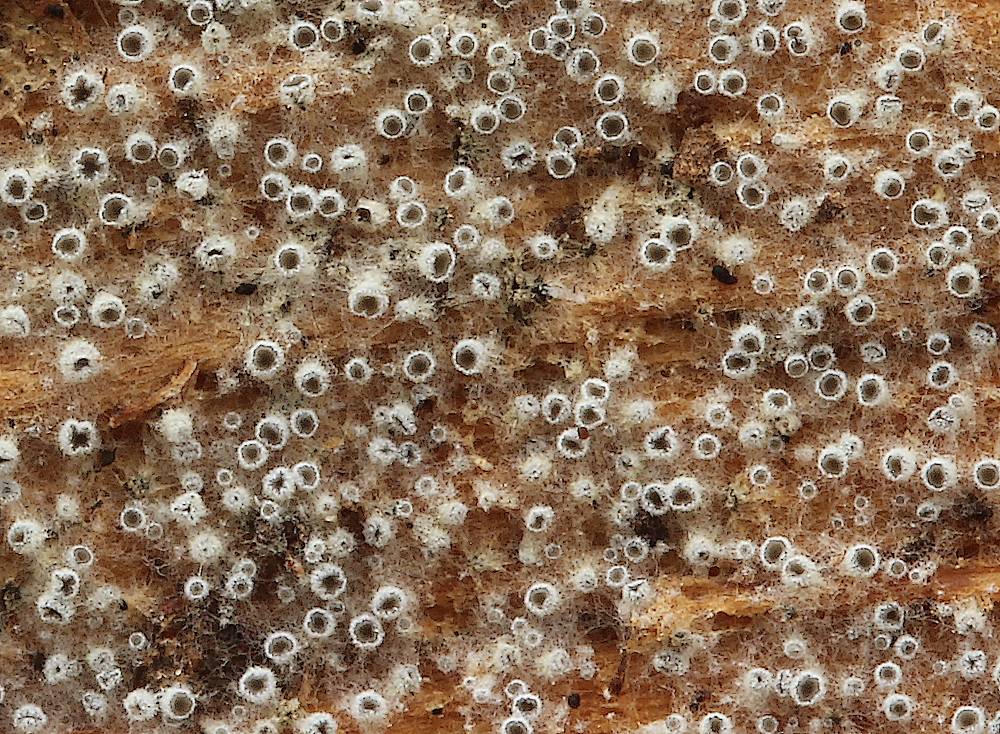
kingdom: Fungi
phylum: Ascomycota
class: Leotiomycetes
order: Helotiales
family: Arachnopezizaceae
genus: Eriopezia
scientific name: Eriopezia caesia
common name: ege-spindskive
